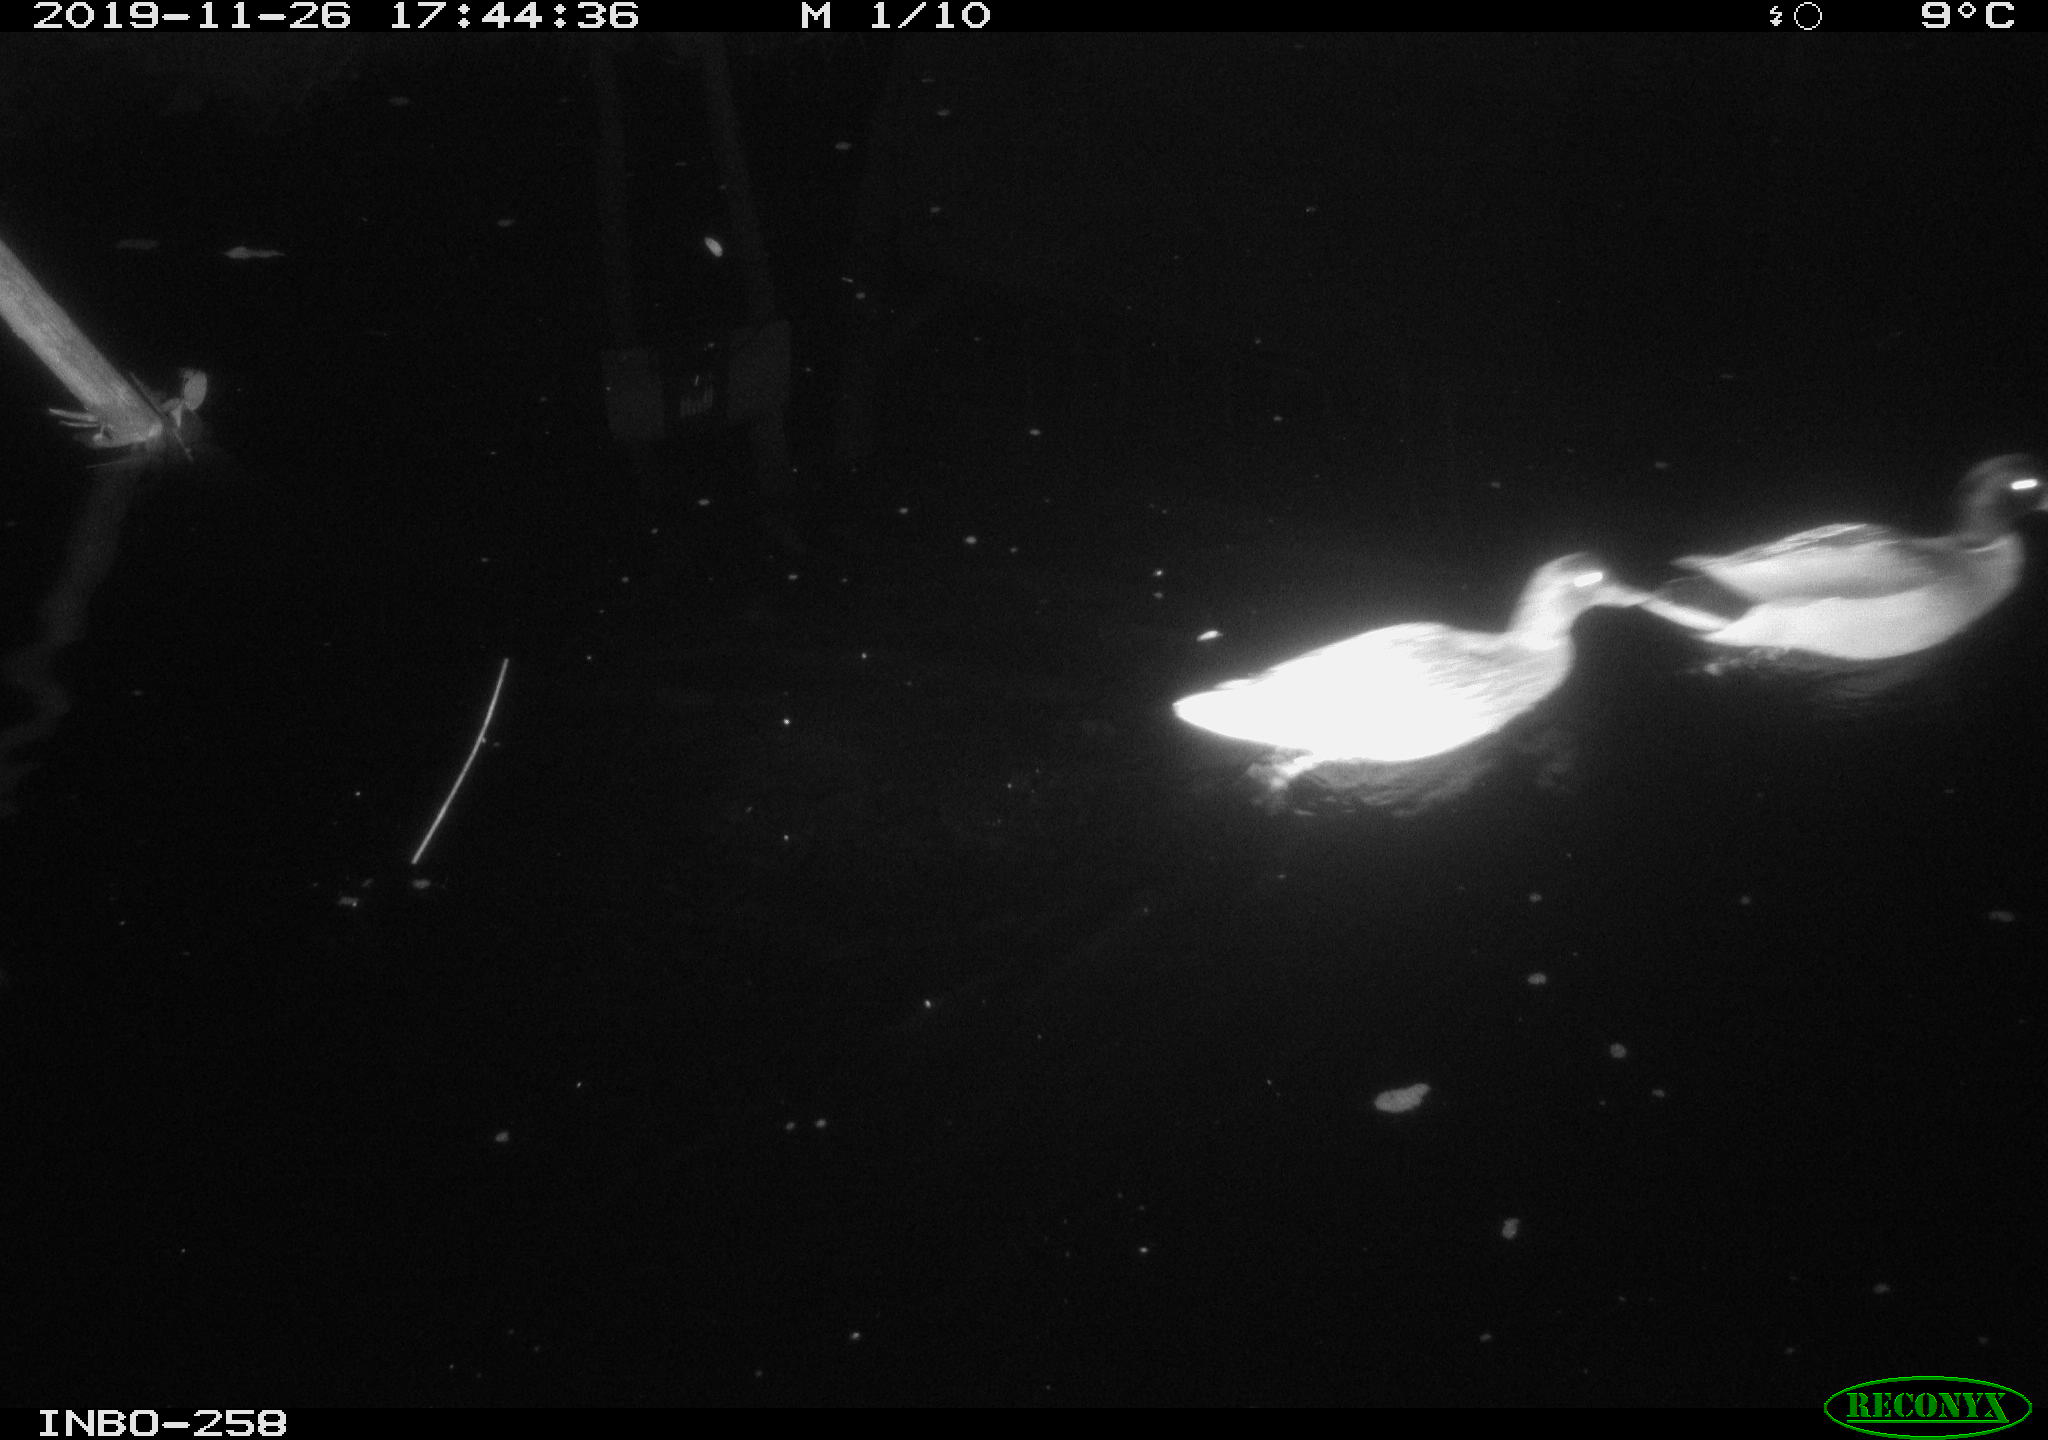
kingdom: Animalia
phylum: Chordata
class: Aves
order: Anseriformes
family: Anatidae
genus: Anas
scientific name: Anas platyrhynchos
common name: Mallard
